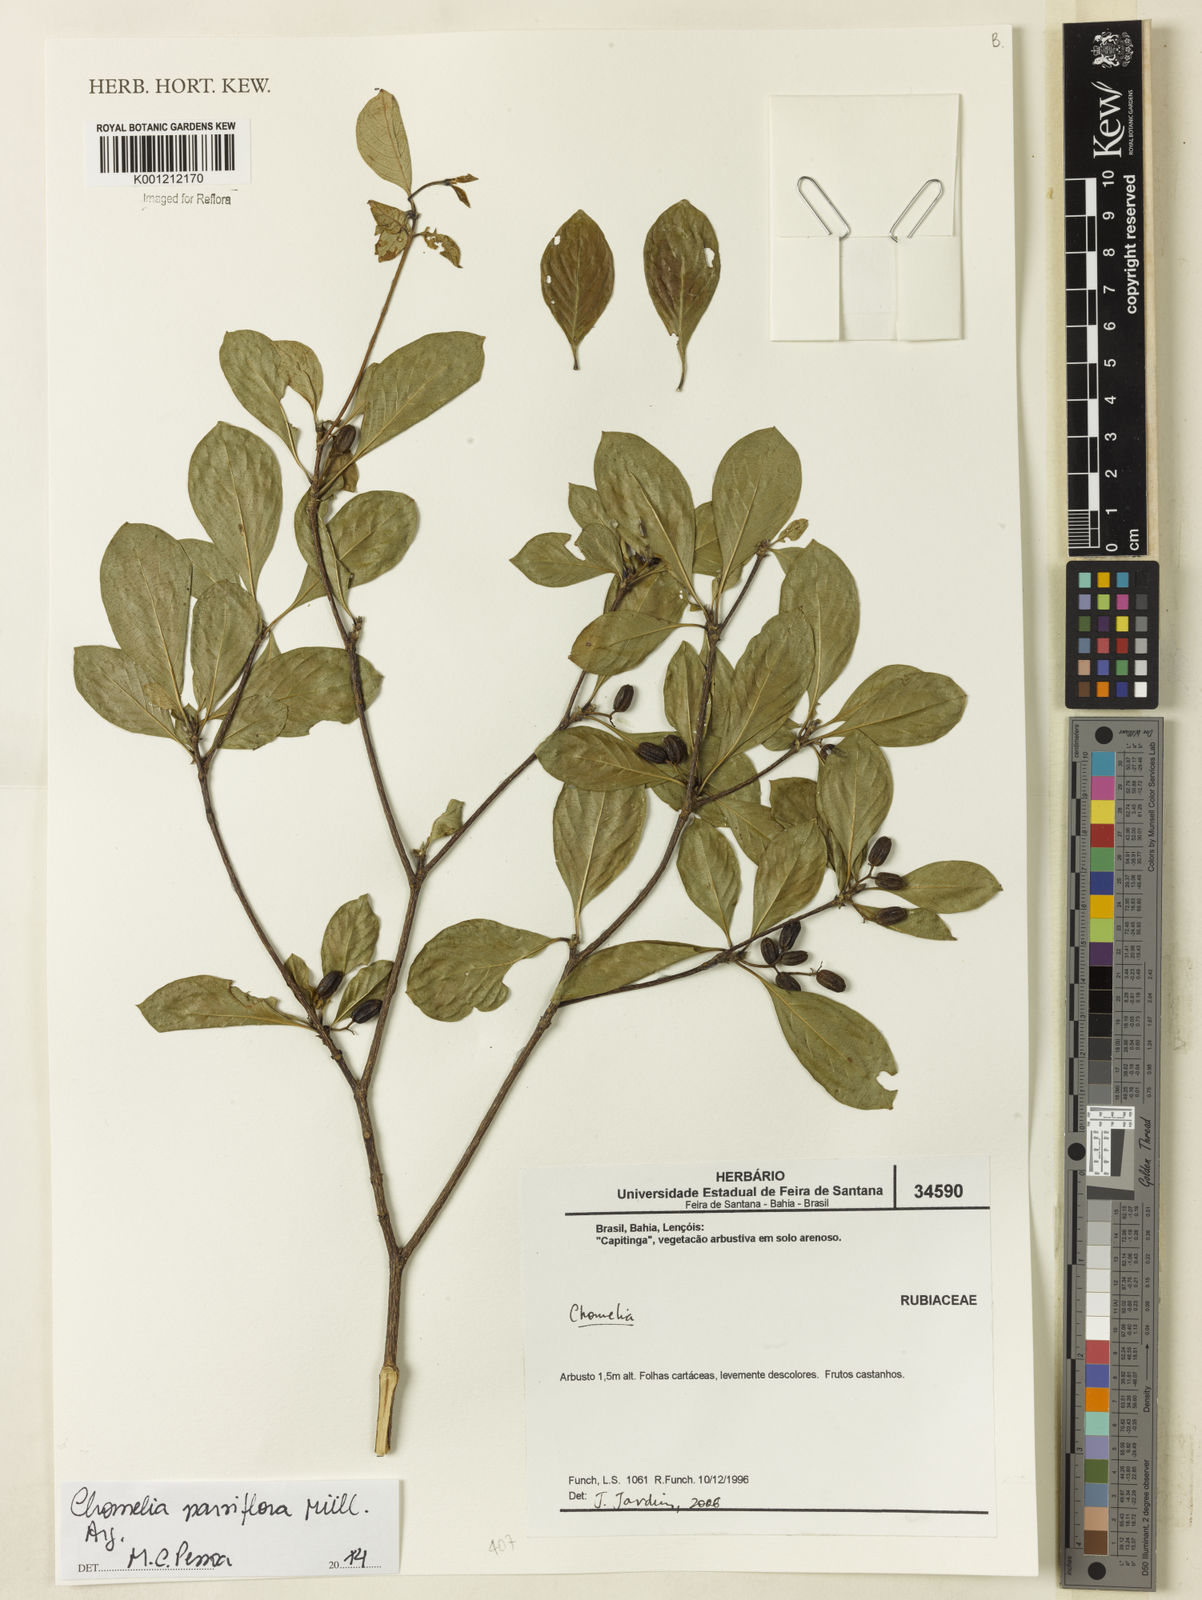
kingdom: Plantae
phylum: Tracheophyta
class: Magnoliopsida
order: Gentianales
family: Rubiaceae
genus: Chomelia
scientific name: Chomelia
